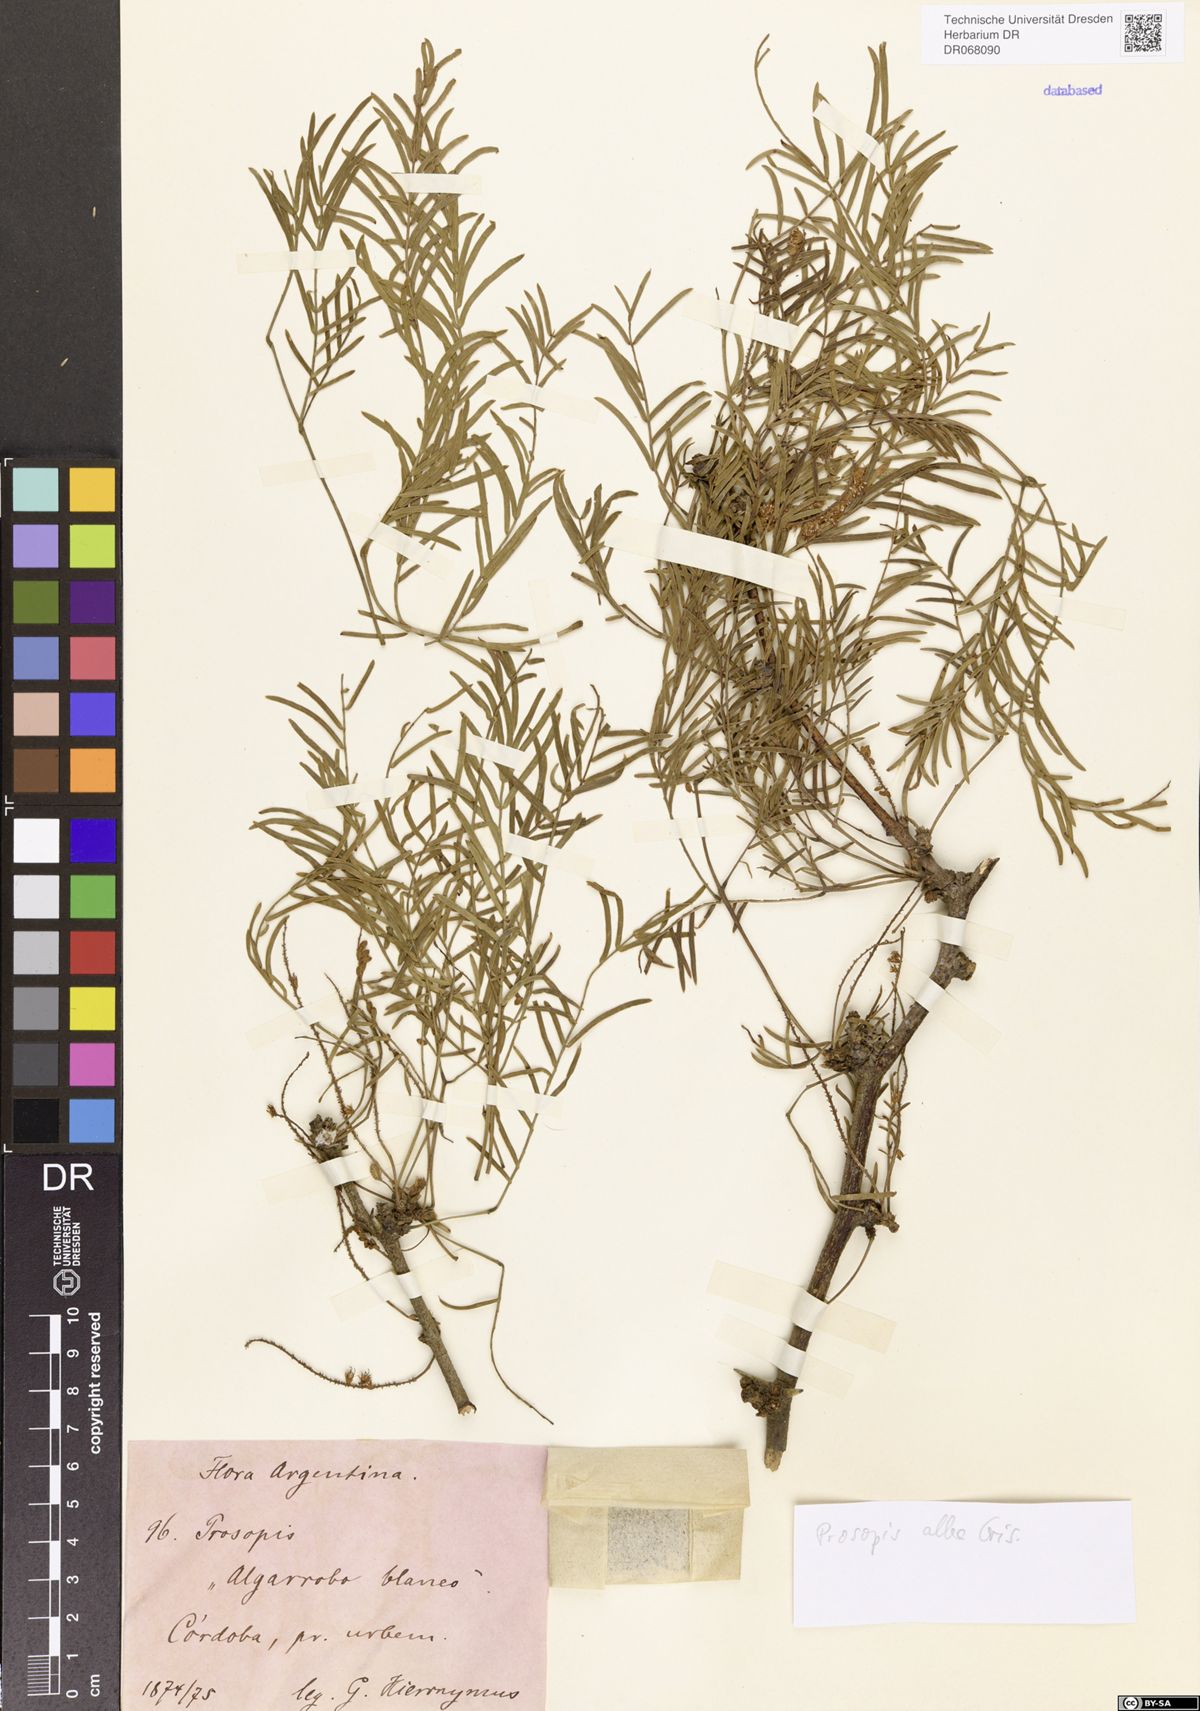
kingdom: Plantae
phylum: Tracheophyta
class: Magnoliopsida
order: Fabales
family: Fabaceae
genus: Prosopis
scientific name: Prosopis alba
